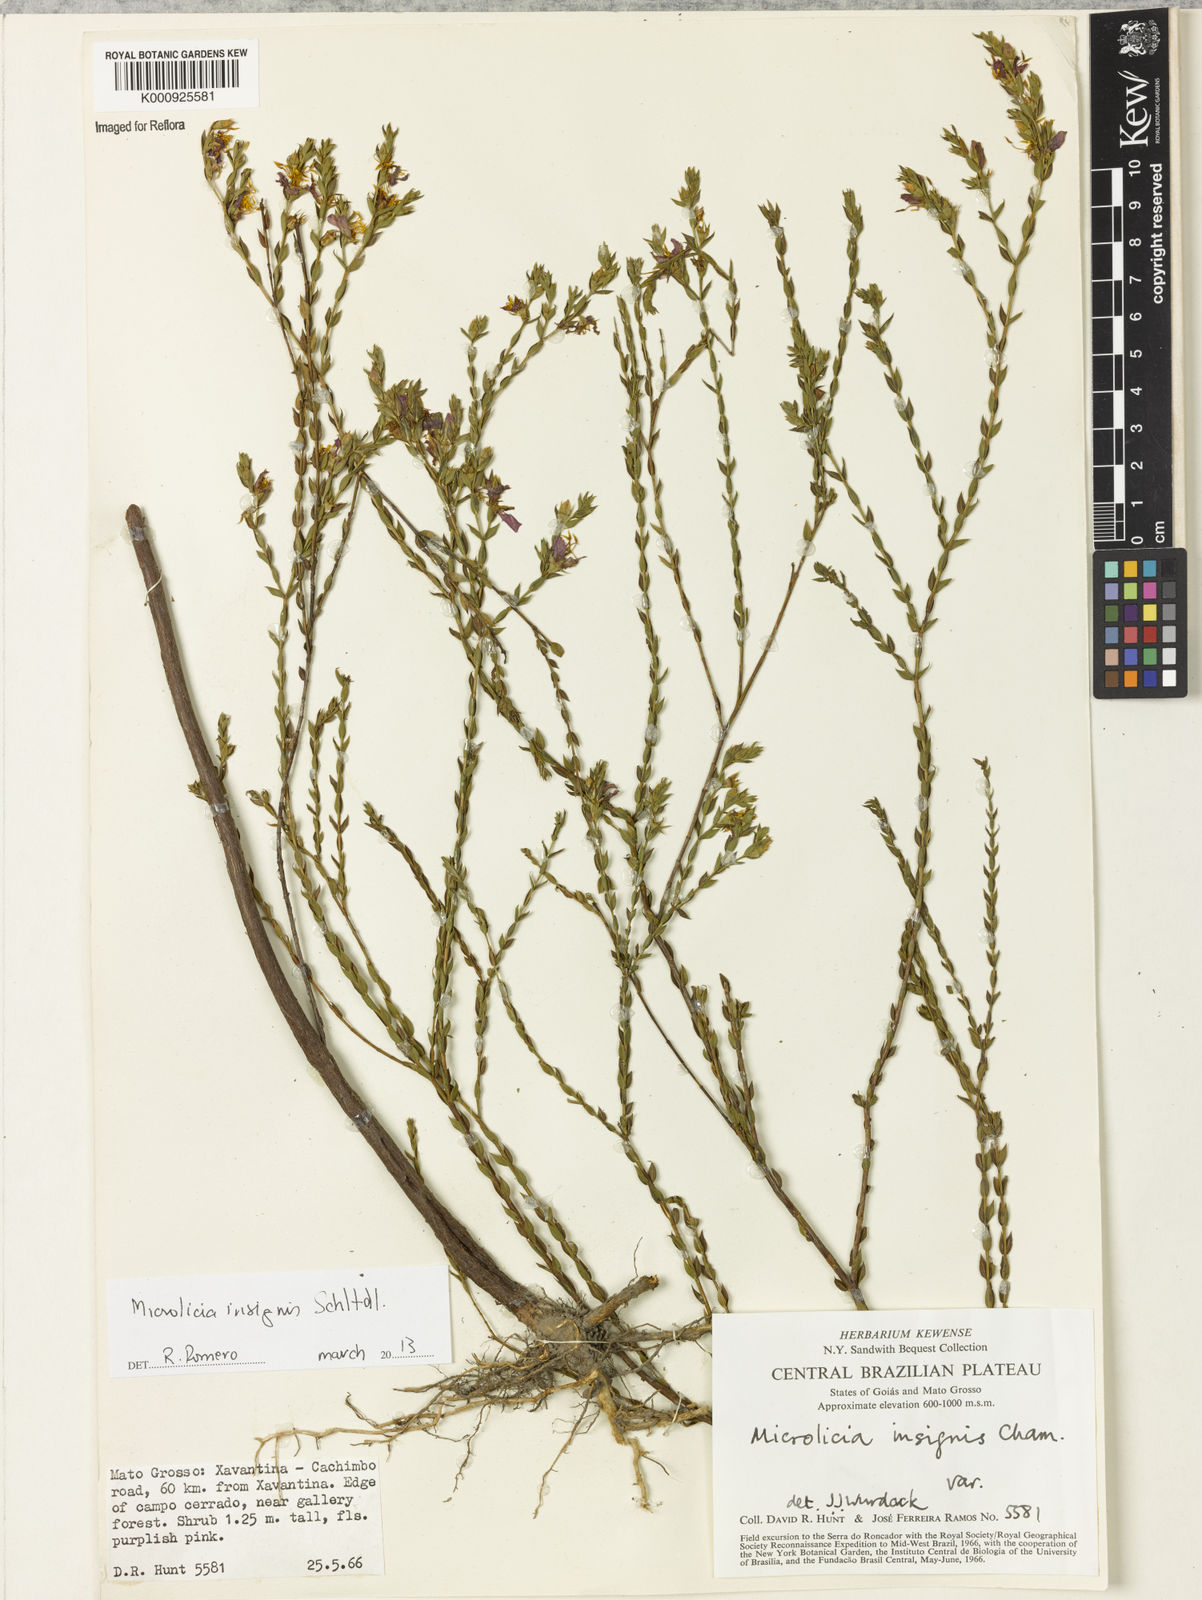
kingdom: Plantae
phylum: Tracheophyta
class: Magnoliopsida
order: Myrtales
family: Melastomataceae
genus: Microlicia
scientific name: Microlicia
